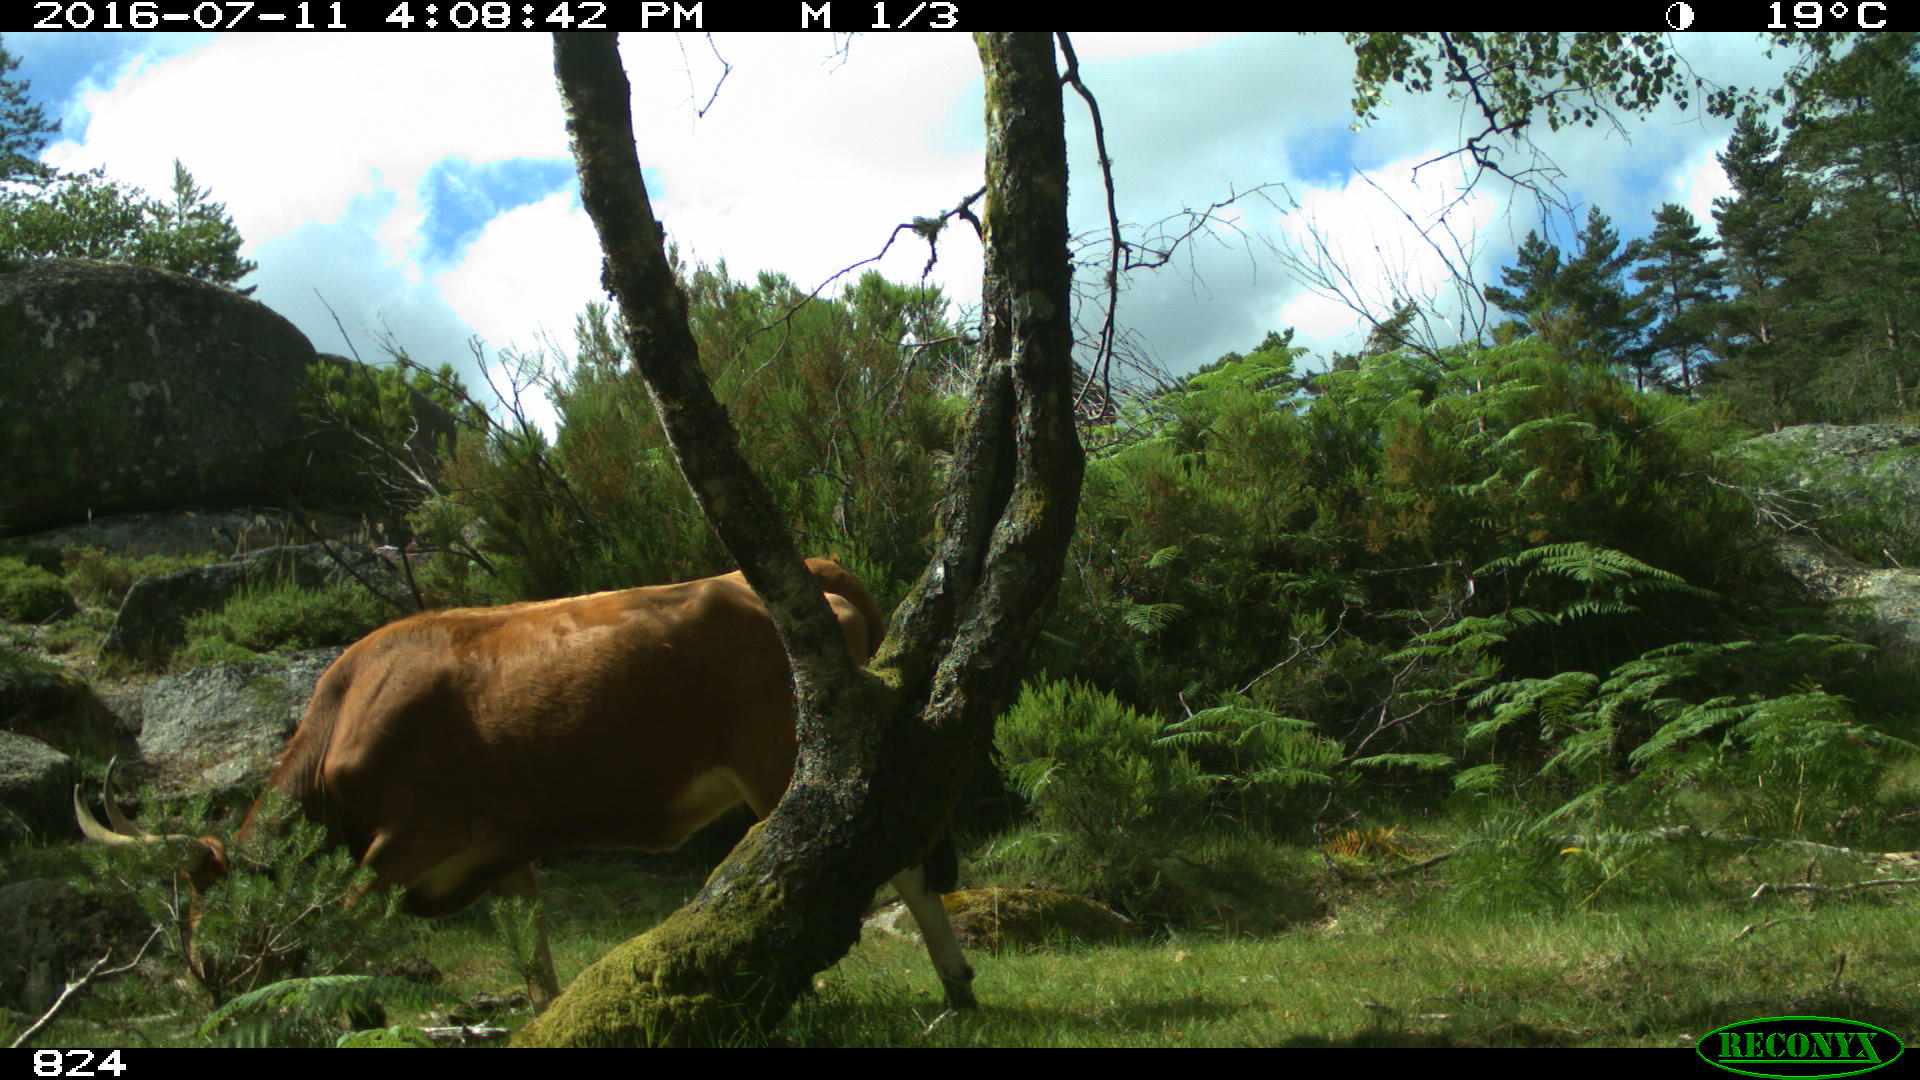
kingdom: Animalia
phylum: Chordata
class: Mammalia
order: Artiodactyla
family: Bovidae
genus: Bos
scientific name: Bos taurus
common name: Domesticated cattle
